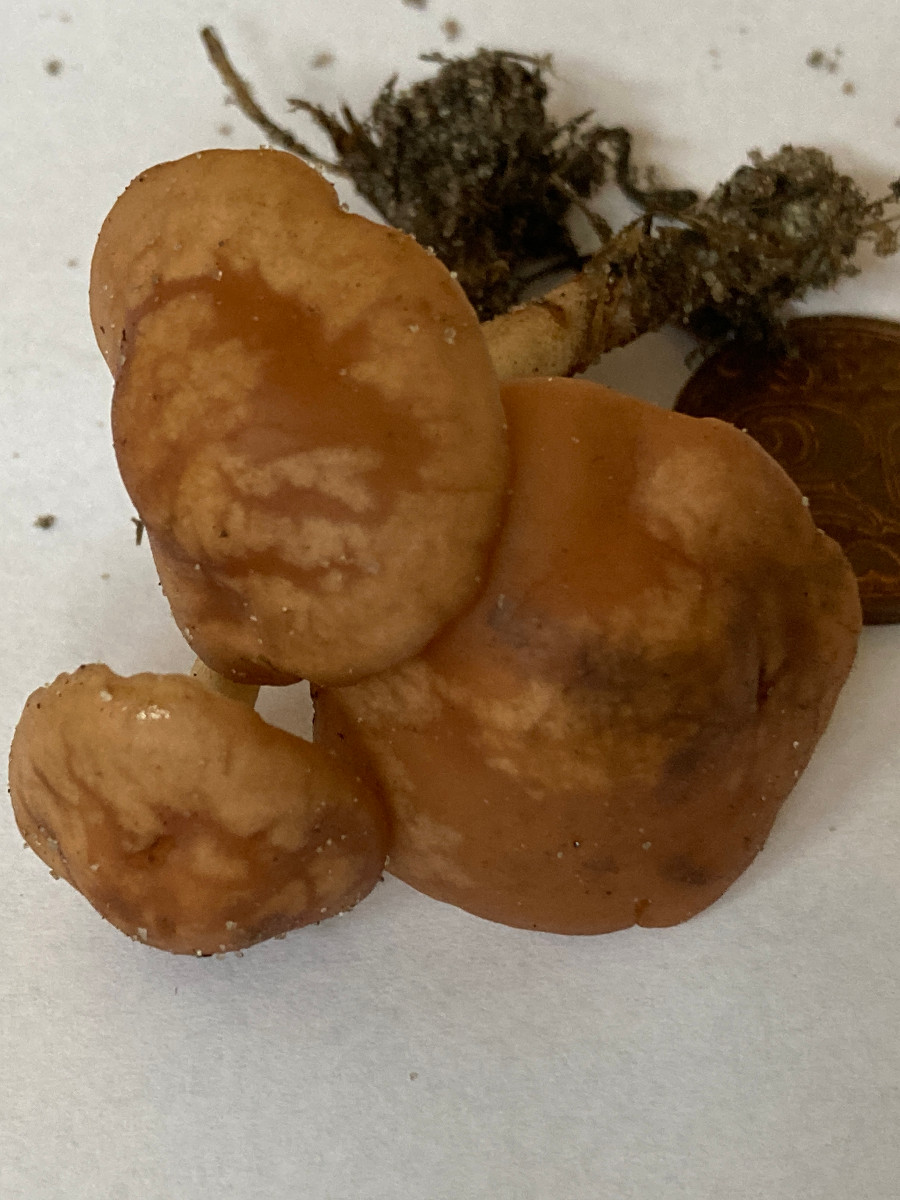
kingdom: Fungi
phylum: Basidiomycota
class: Agaricomycetes
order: Agaricales
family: Marasmiaceae
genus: Marasmius
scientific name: Marasmius oreades
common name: elledans-bruskhat
